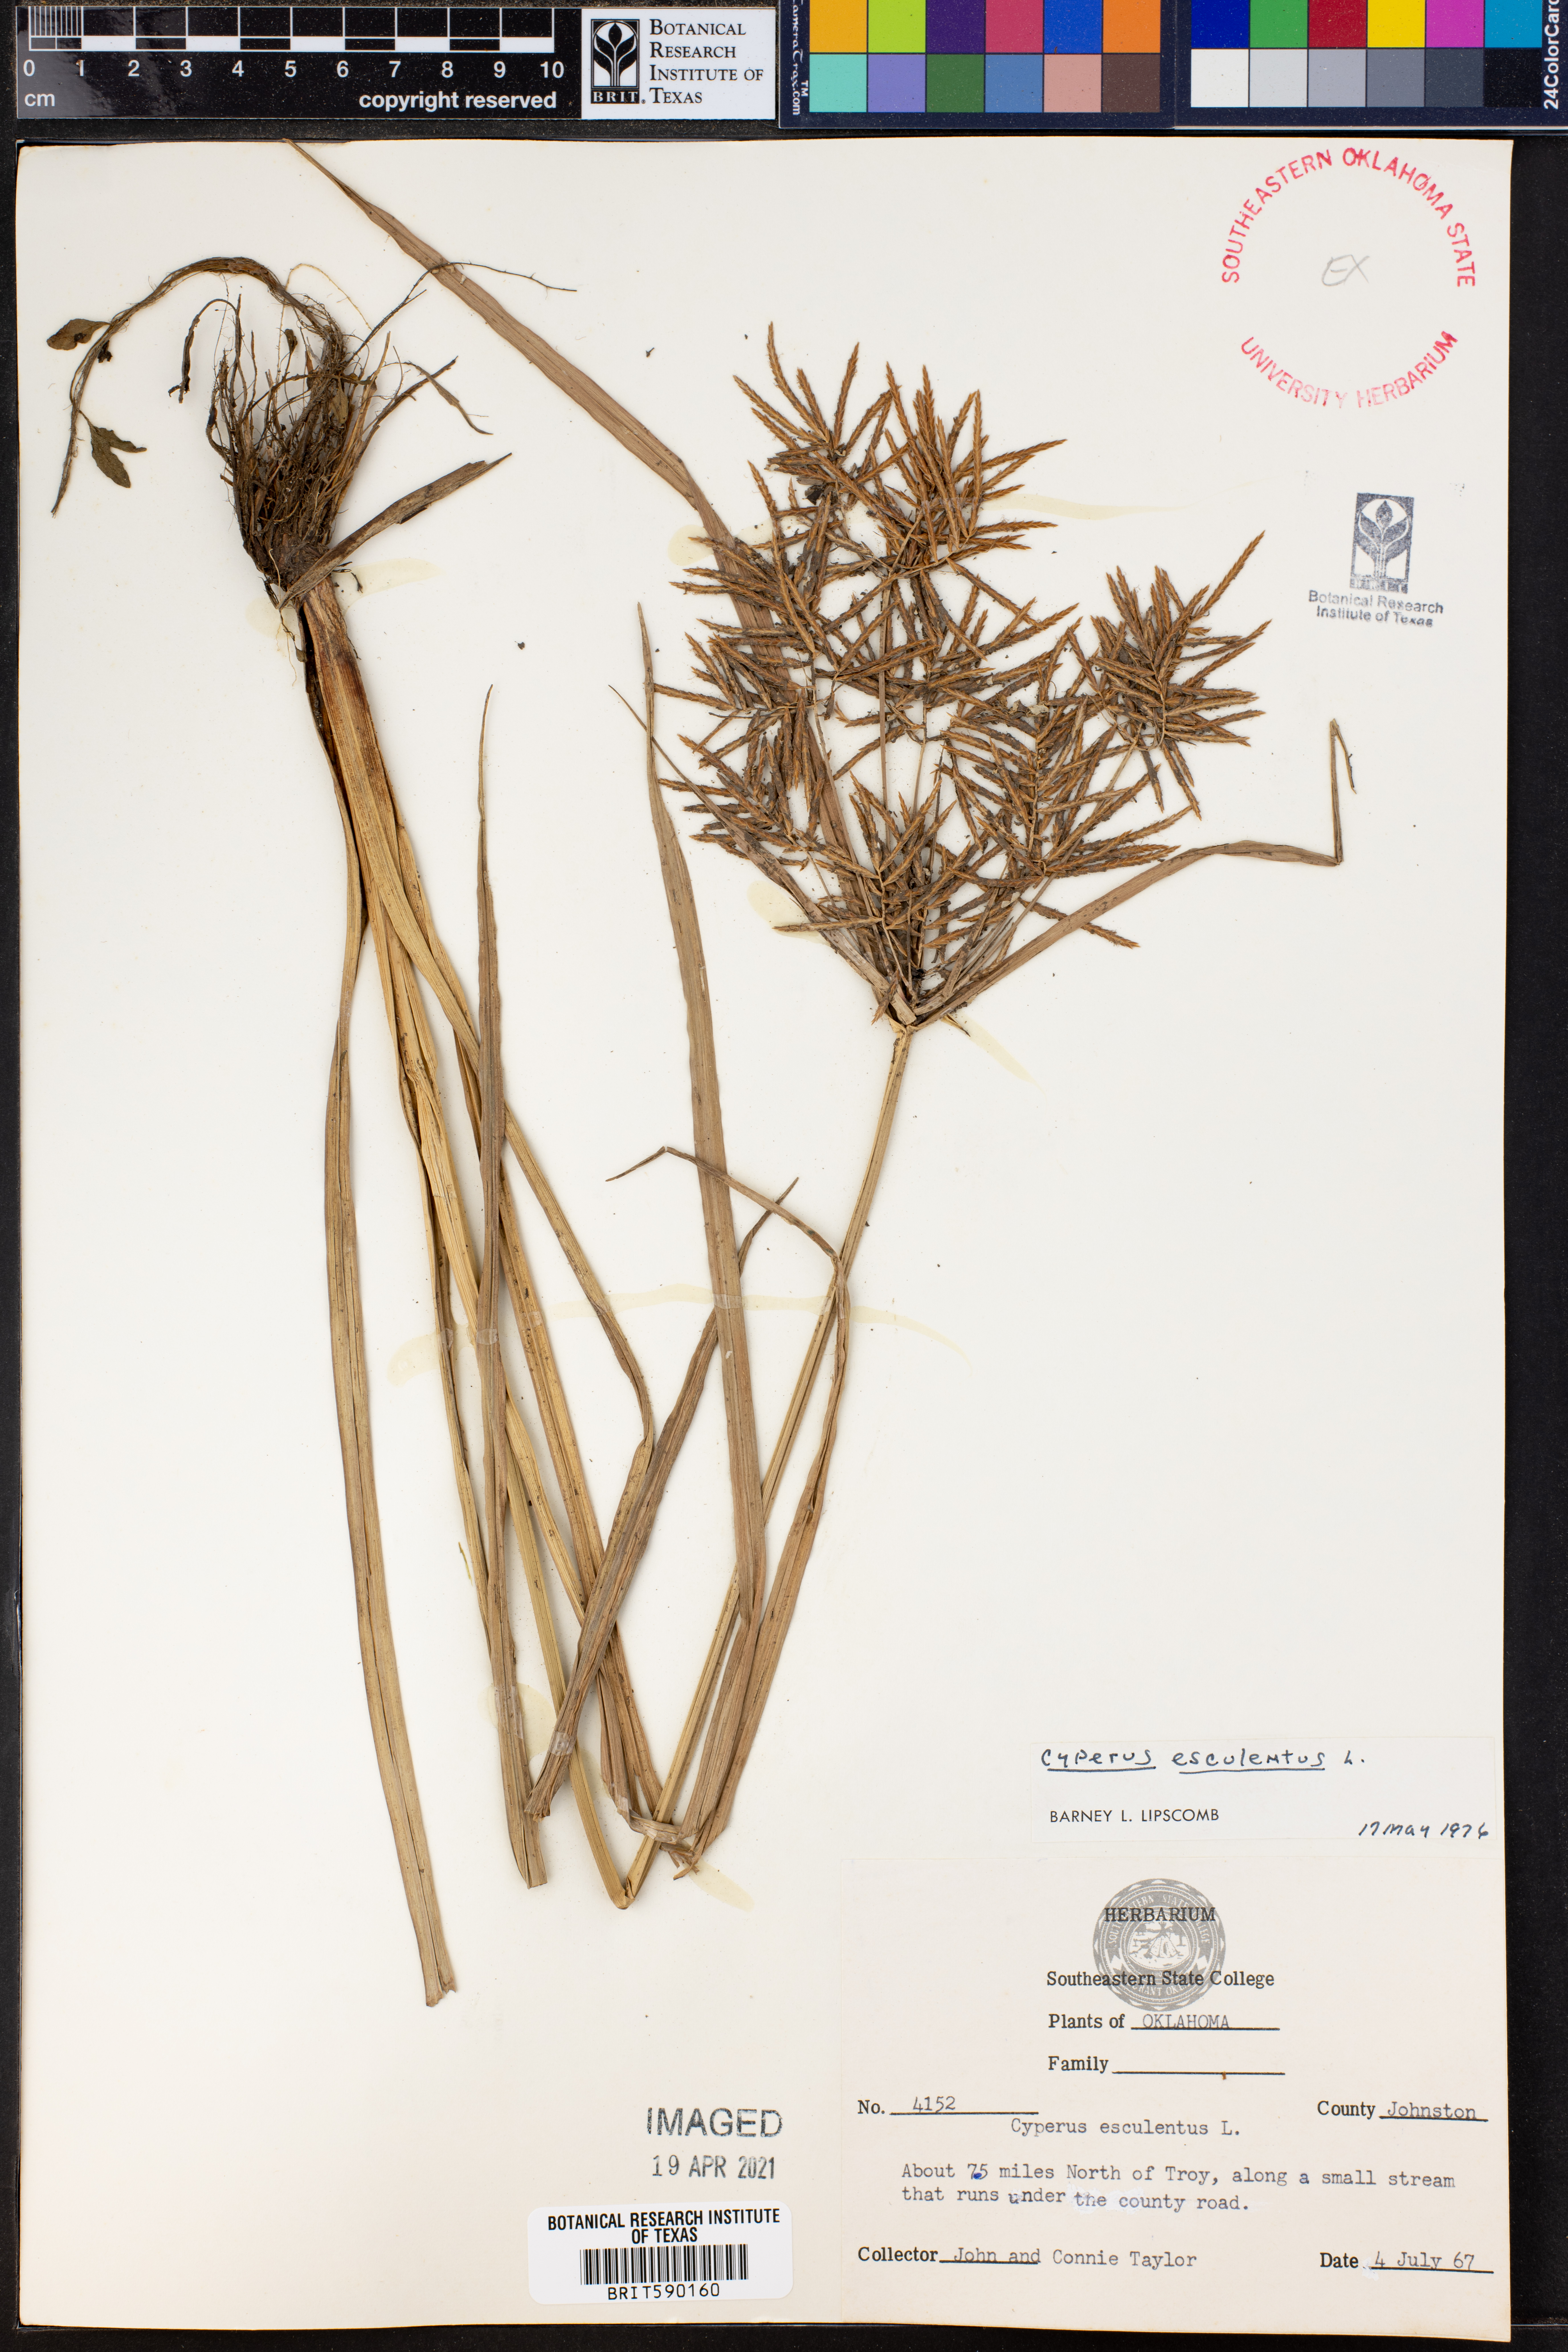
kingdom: Plantae
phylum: Tracheophyta
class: Liliopsida
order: Poales
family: Cyperaceae
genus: Cyperus
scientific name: Cyperus esculentus
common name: Yellow nutsedge
